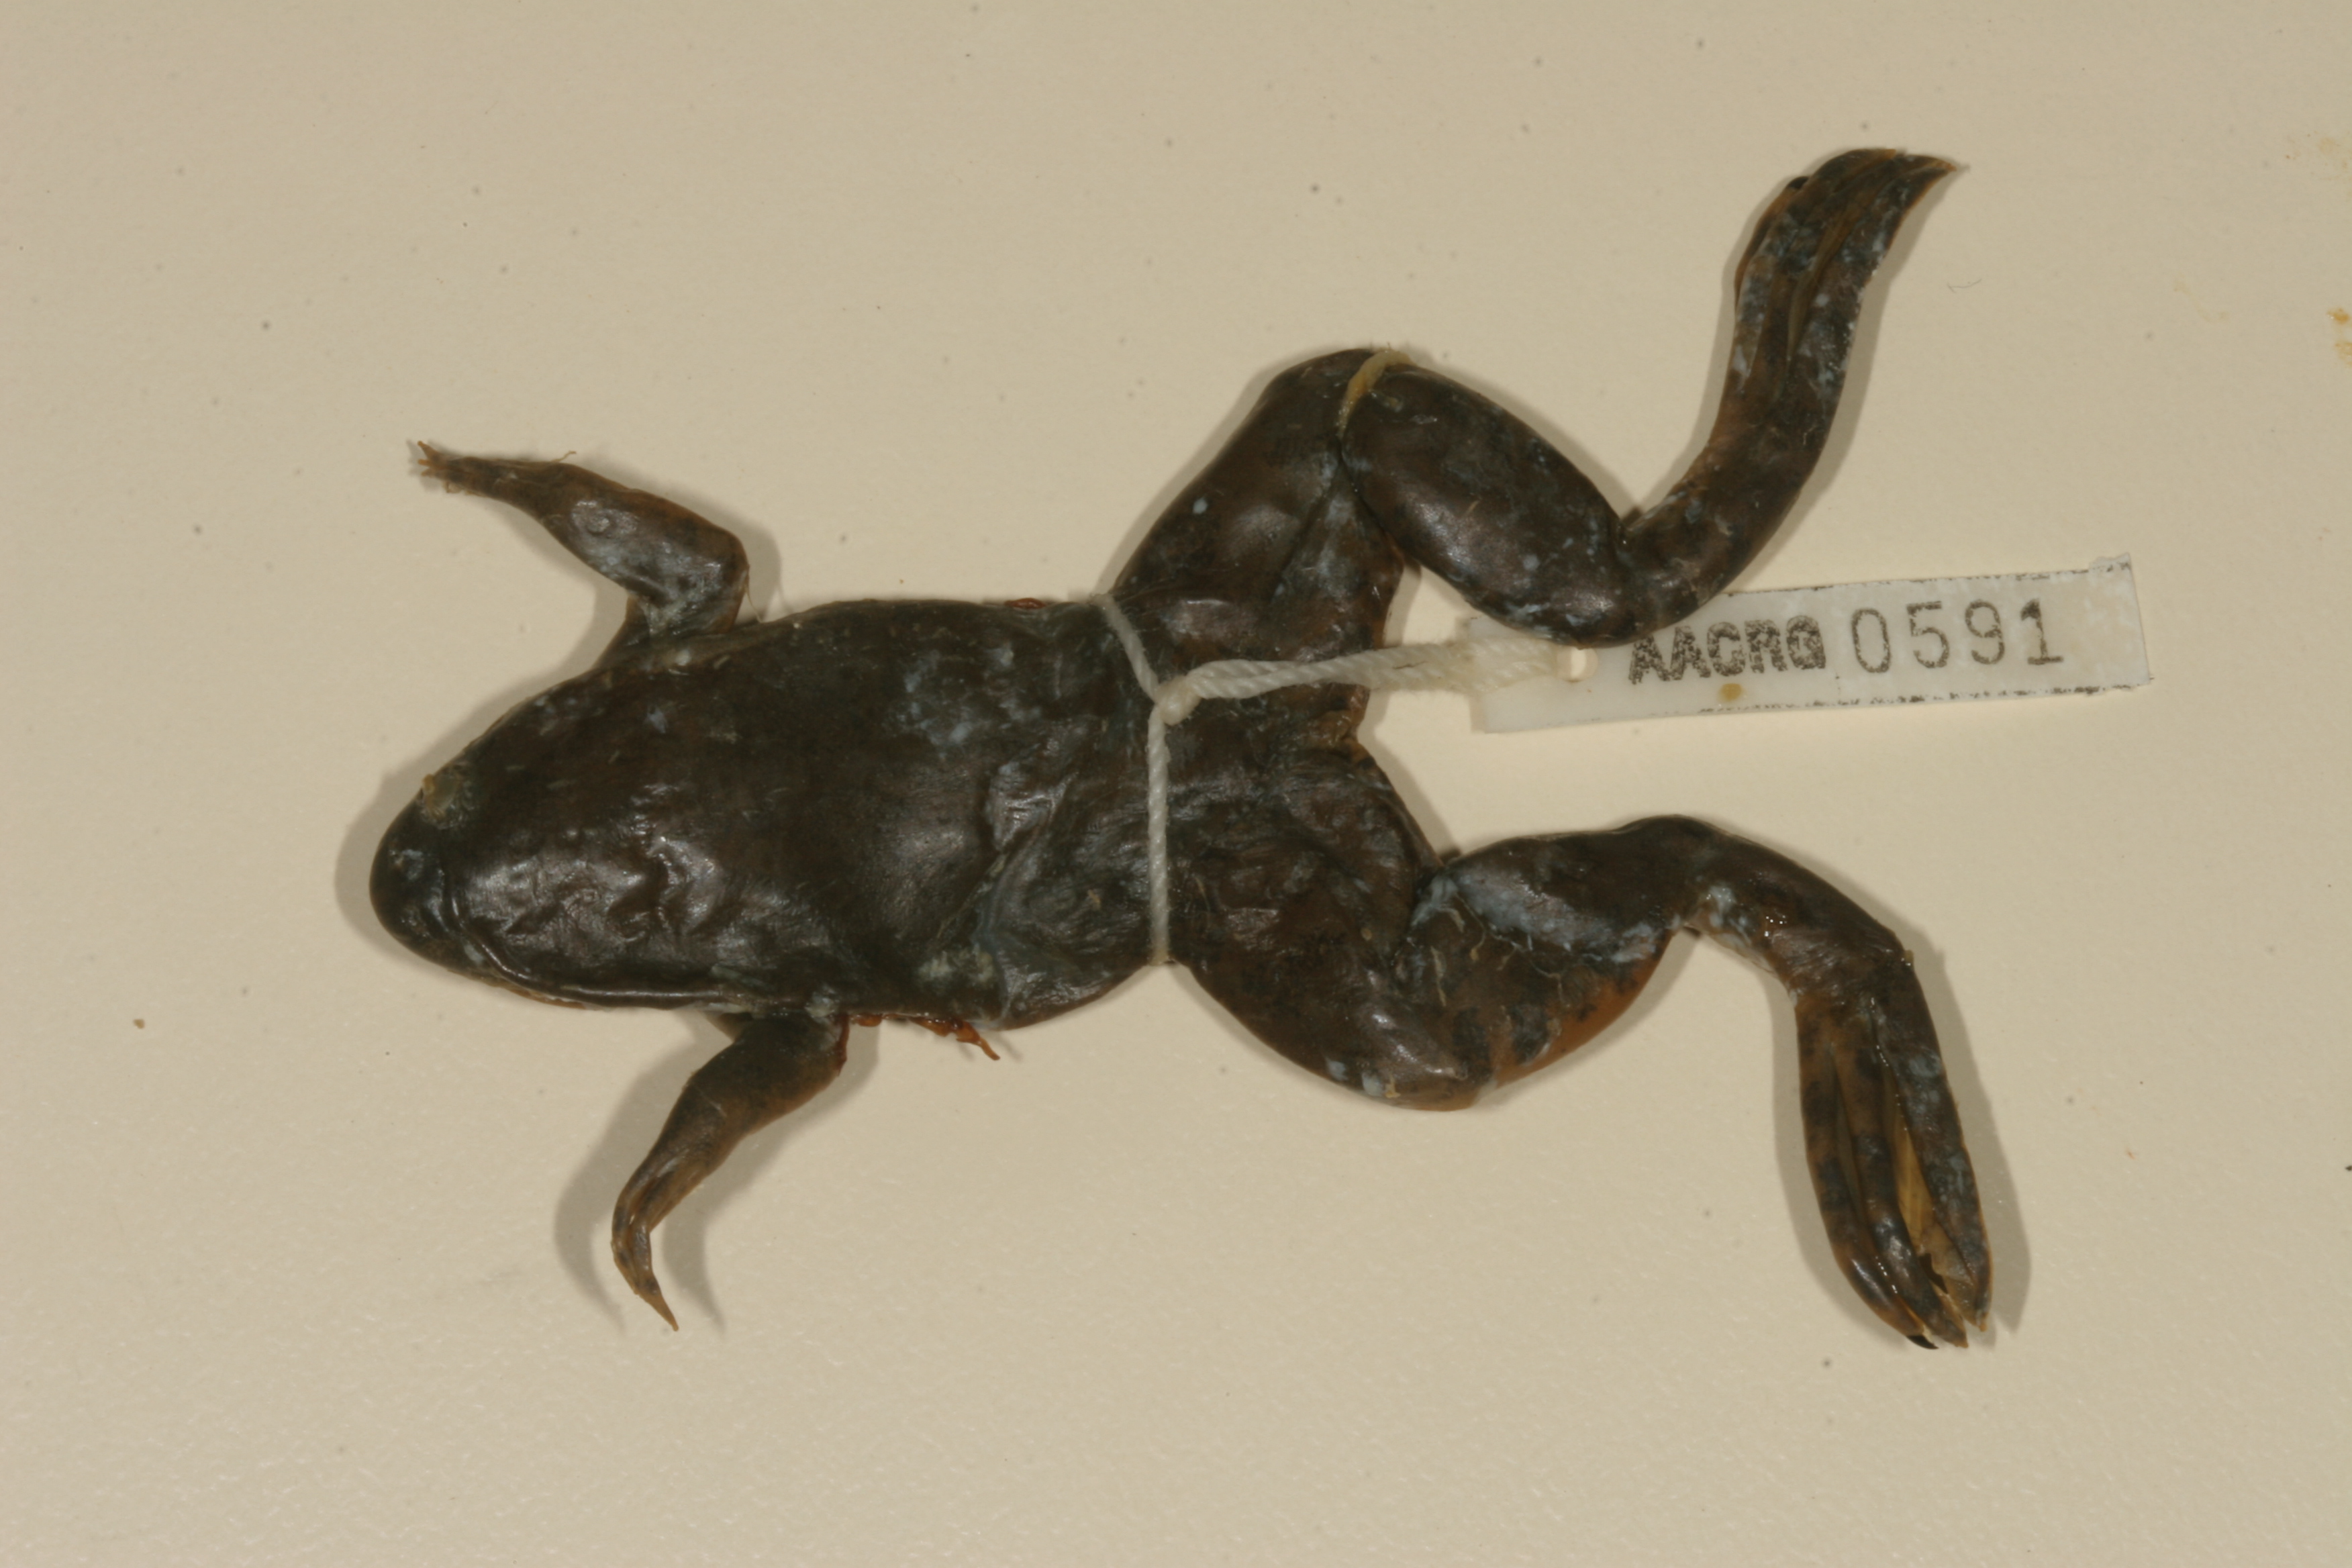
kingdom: Animalia
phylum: Chordata
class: Amphibia
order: Anura
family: Pipidae
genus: Xenopus
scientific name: Xenopus muelleri
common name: Muller's clawed frog
